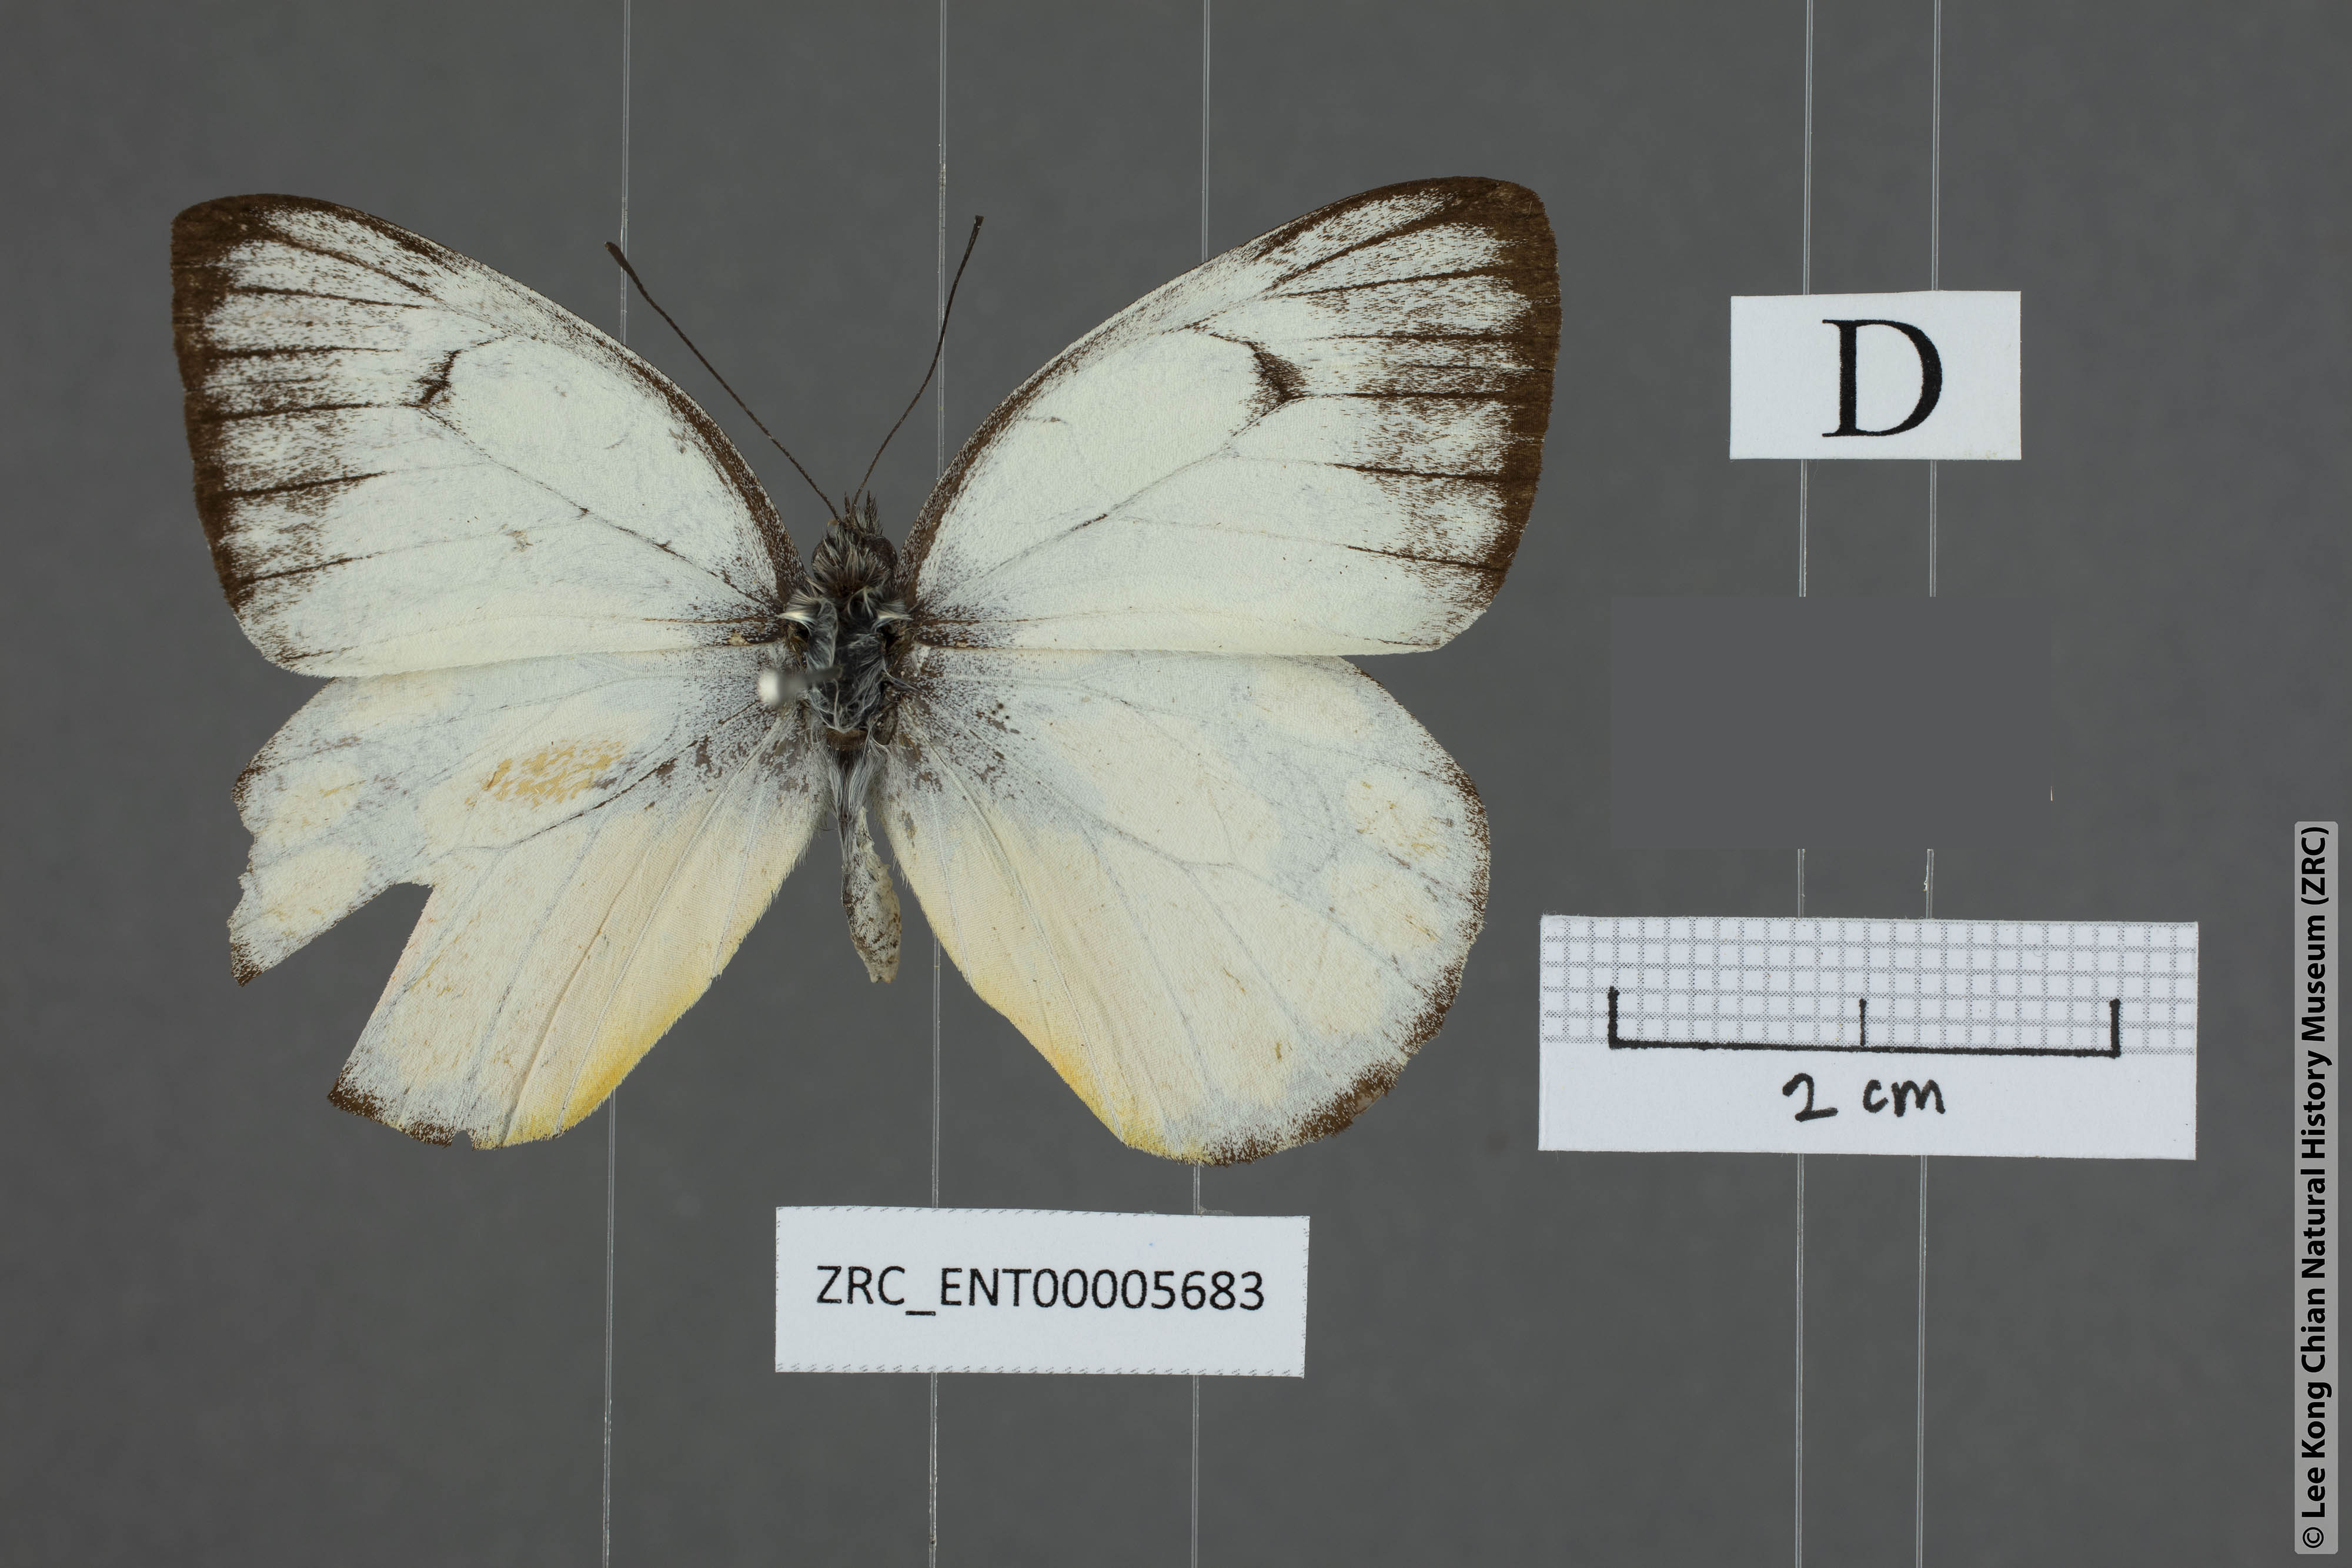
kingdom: Animalia
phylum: Arthropoda
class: Insecta
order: Lepidoptera
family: Pieridae
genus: Delias
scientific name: Delias georgina
